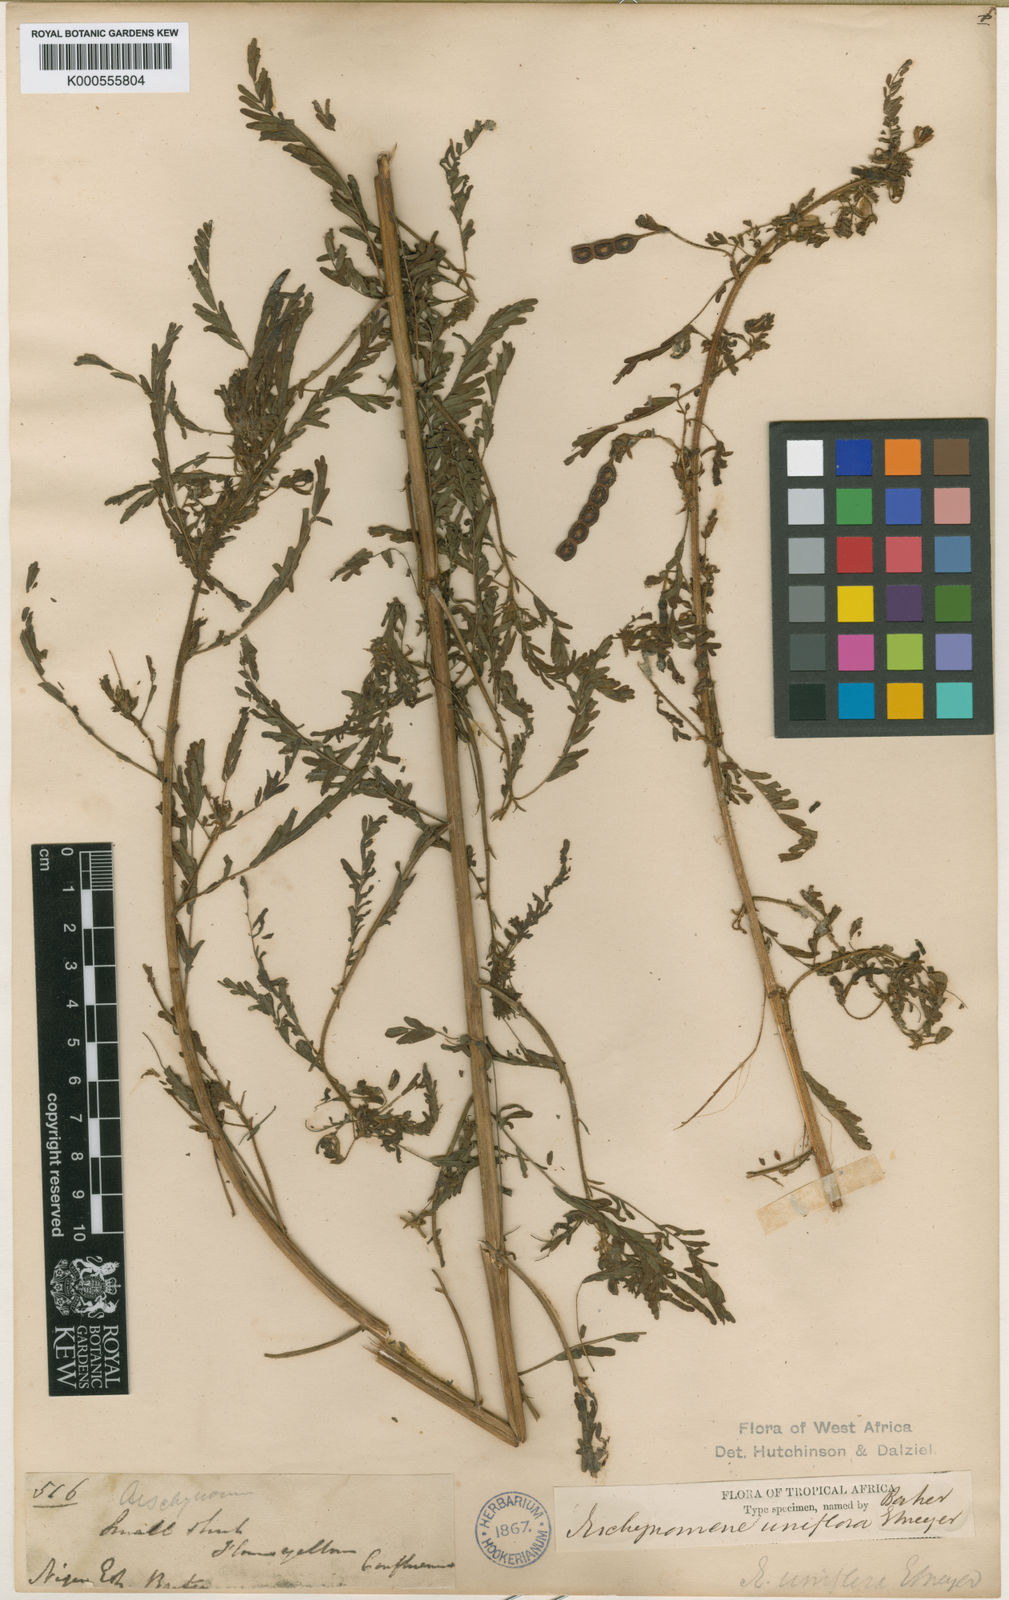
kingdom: Plantae
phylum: Tracheophyta
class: Magnoliopsida
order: Fabales
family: Fabaceae
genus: Aeschynomene
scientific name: Aeschynomene uniflora
